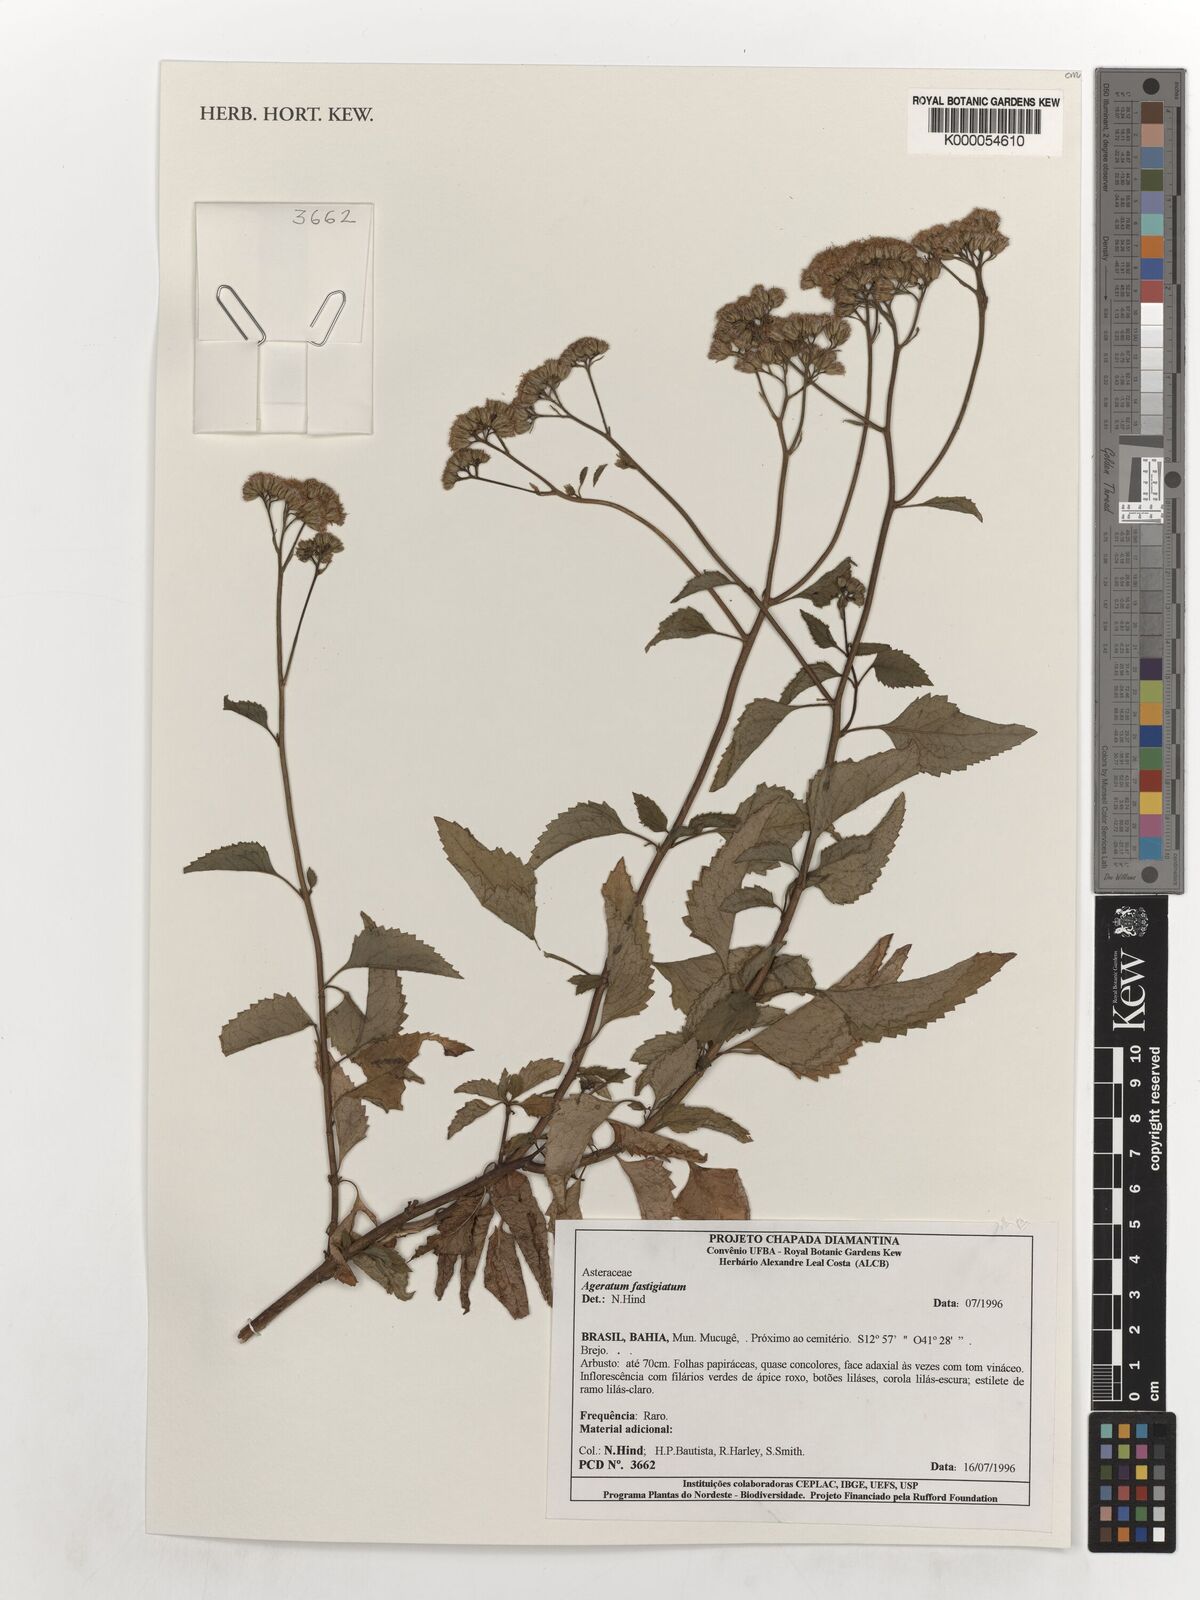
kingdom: Plantae
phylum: Tracheophyta
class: Magnoliopsida
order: Asterales
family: Asteraceae
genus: Ageratum
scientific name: Ageratum fastigiatum
